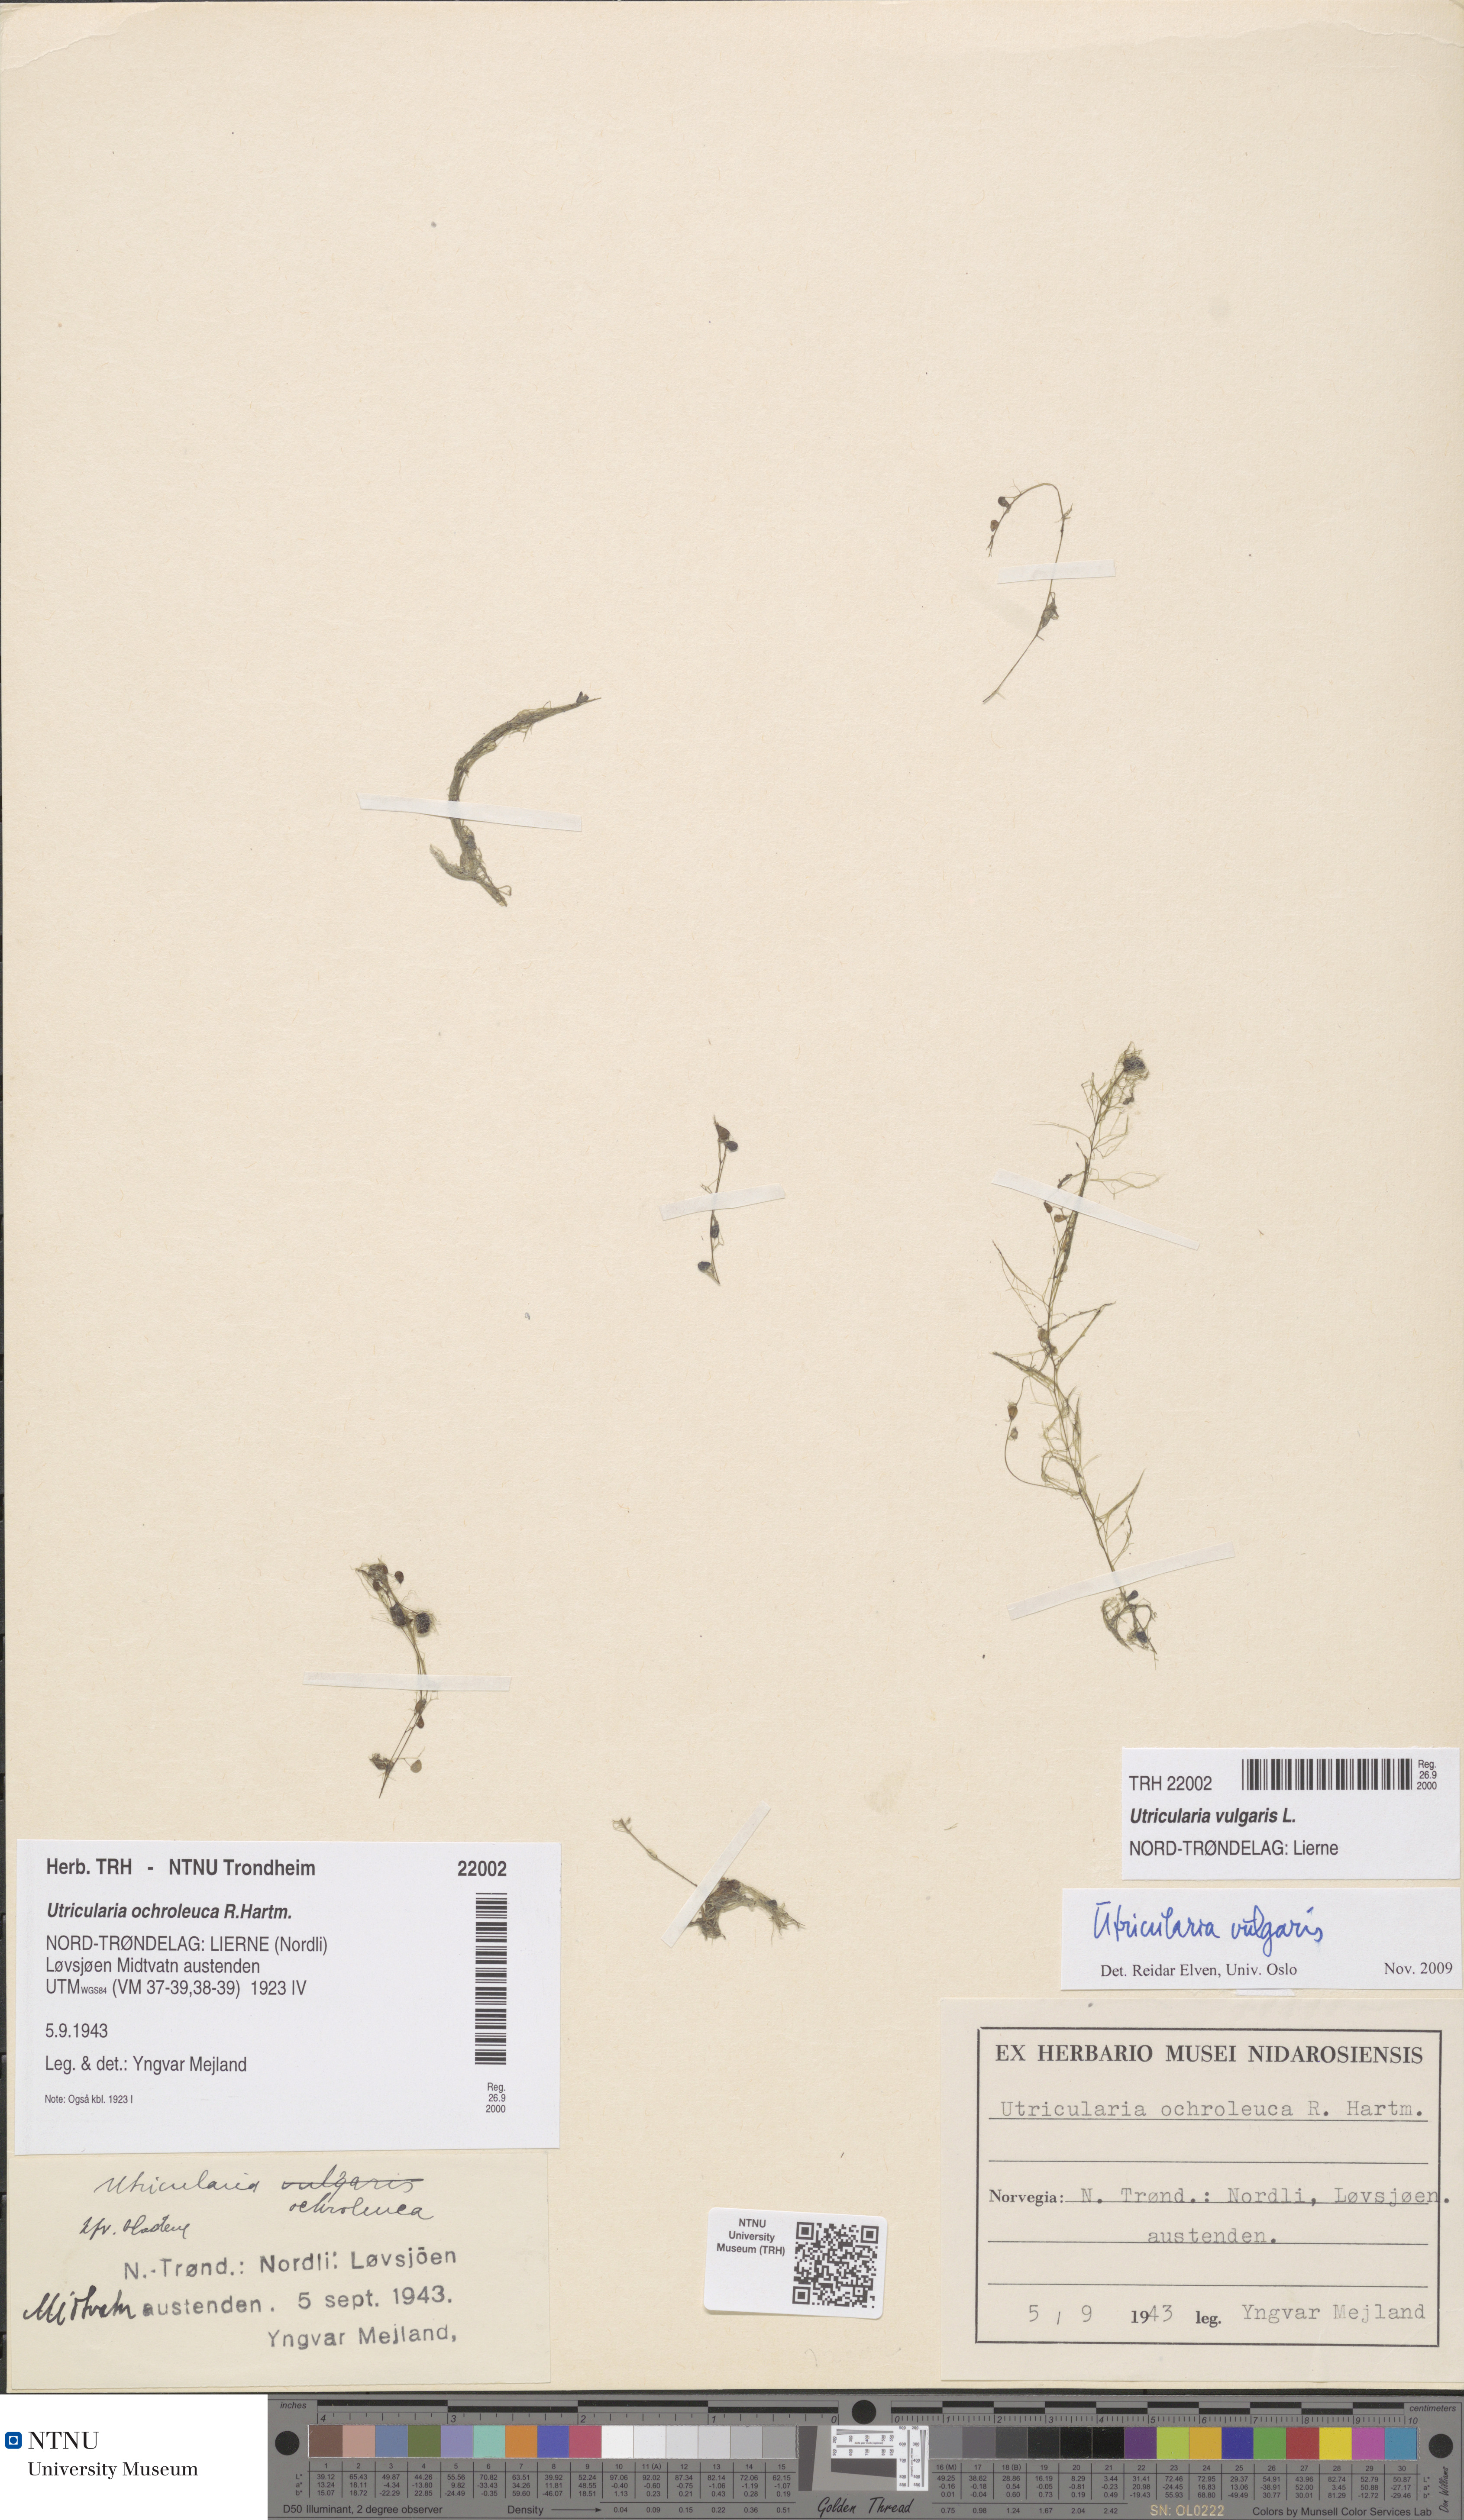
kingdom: Plantae
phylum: Tracheophyta
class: Magnoliopsida
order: Lamiales
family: Lentibulariaceae
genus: Utricularia
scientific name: Utricularia vulgaris
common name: Greater bladderwort
